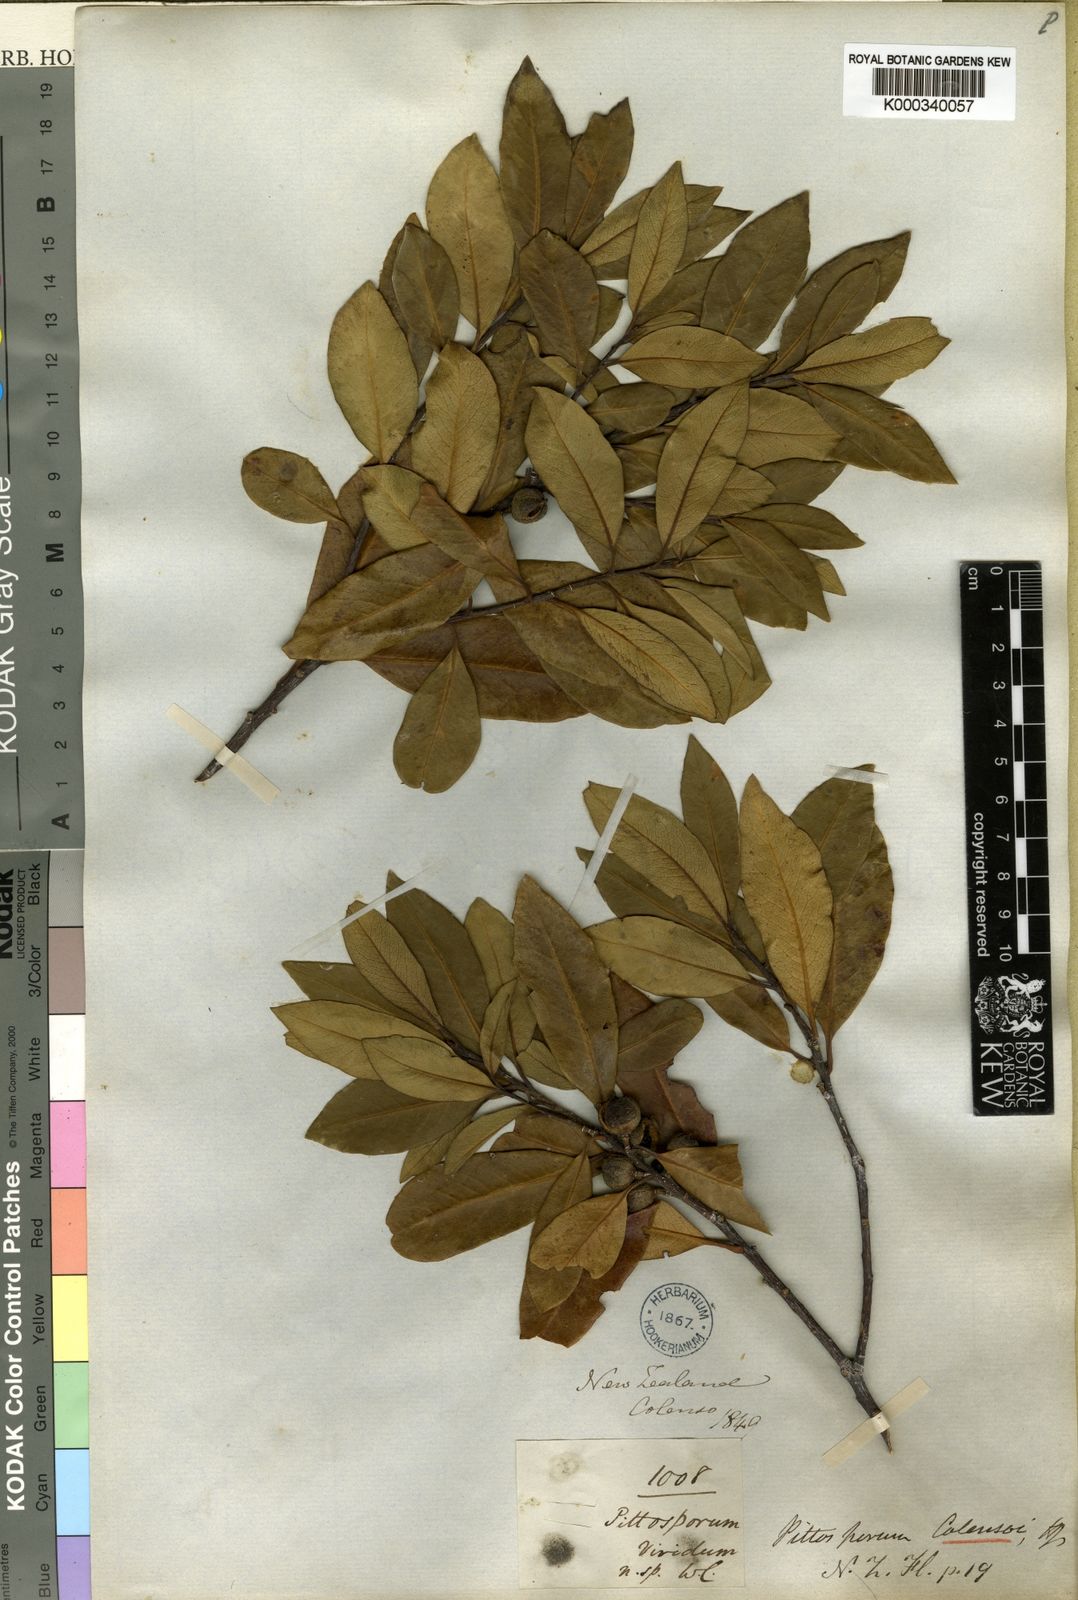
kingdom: Plantae
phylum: Tracheophyta
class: Magnoliopsida
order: Apiales
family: Pittosporaceae
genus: Pittosporum
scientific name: Pittosporum colensoi
